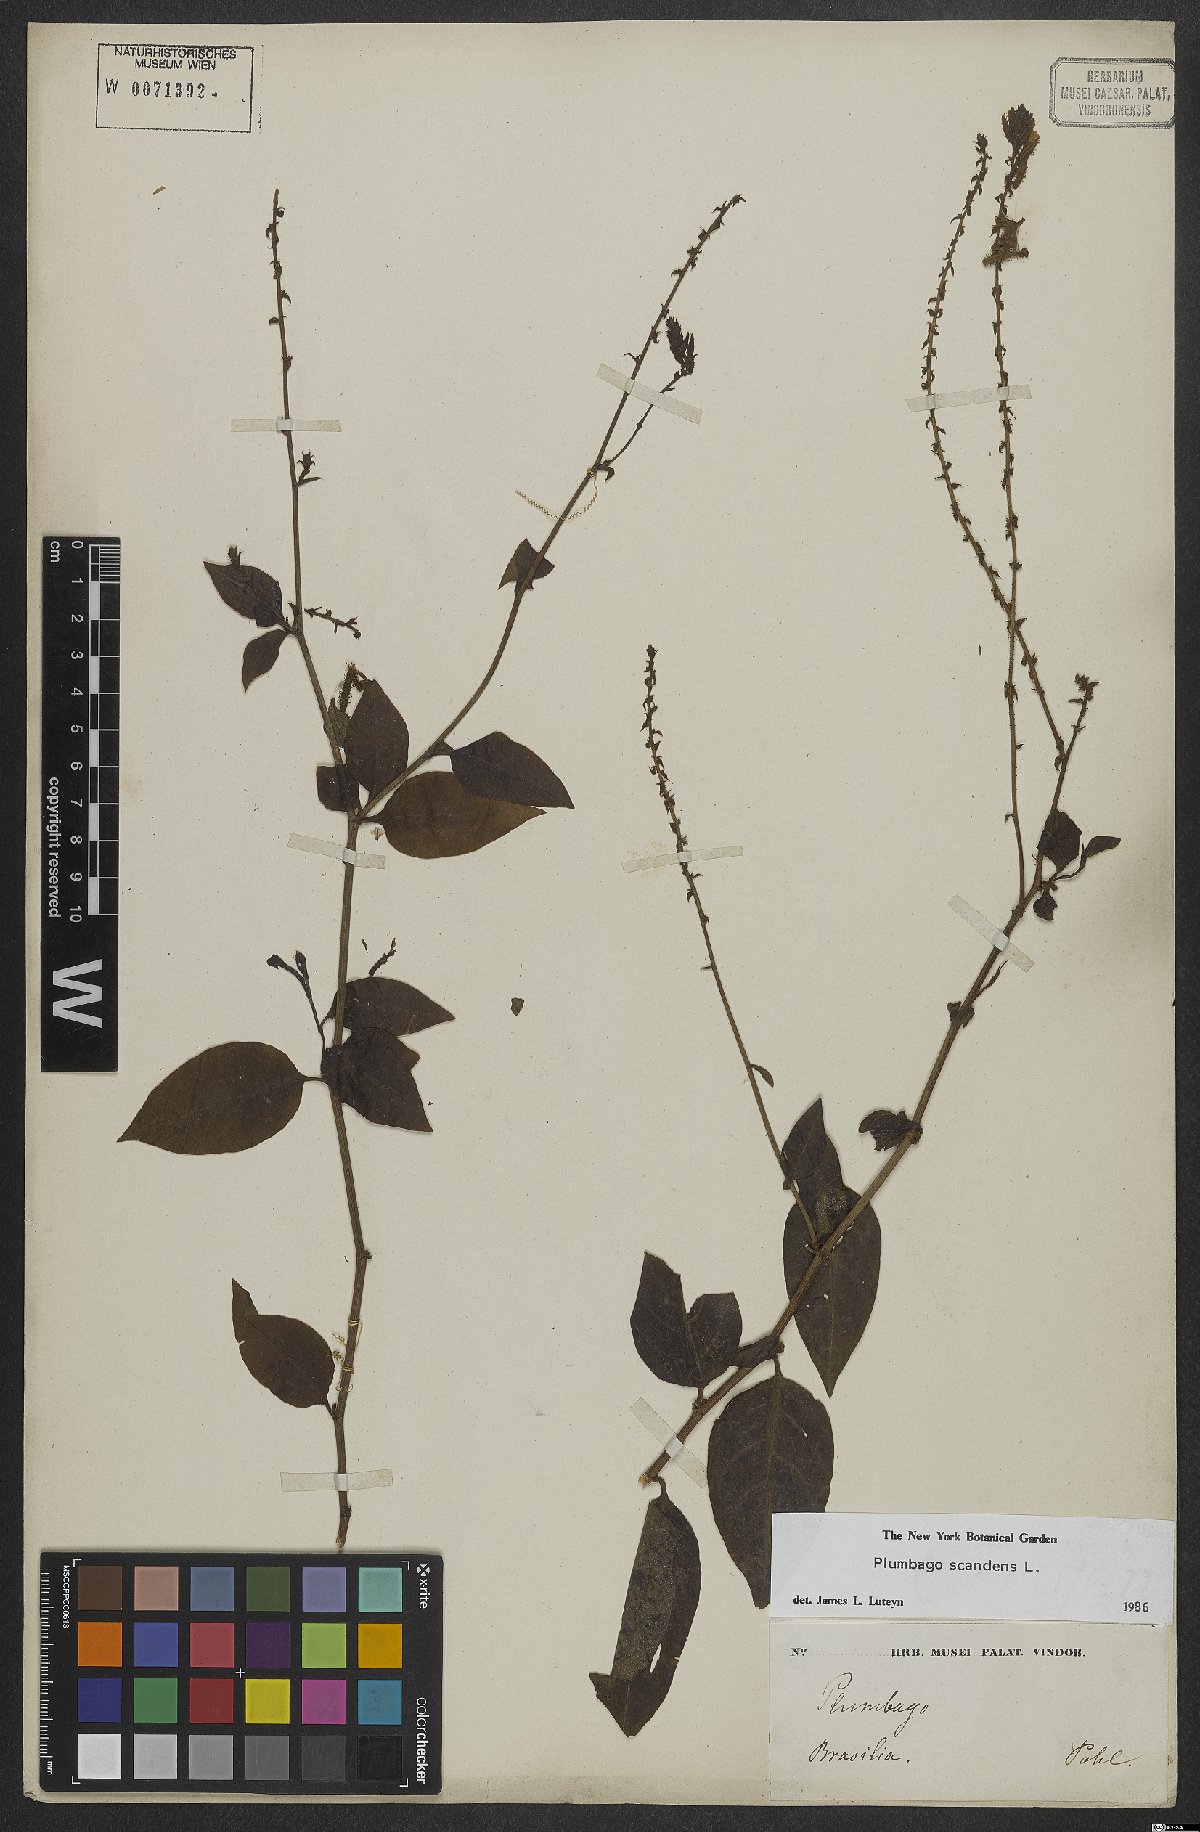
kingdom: Plantae
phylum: Tracheophyta
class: Magnoliopsida
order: Caryophyllales
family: Plumbaginaceae
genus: Plumbago
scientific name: Plumbago zeylanica
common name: Doctorbush
